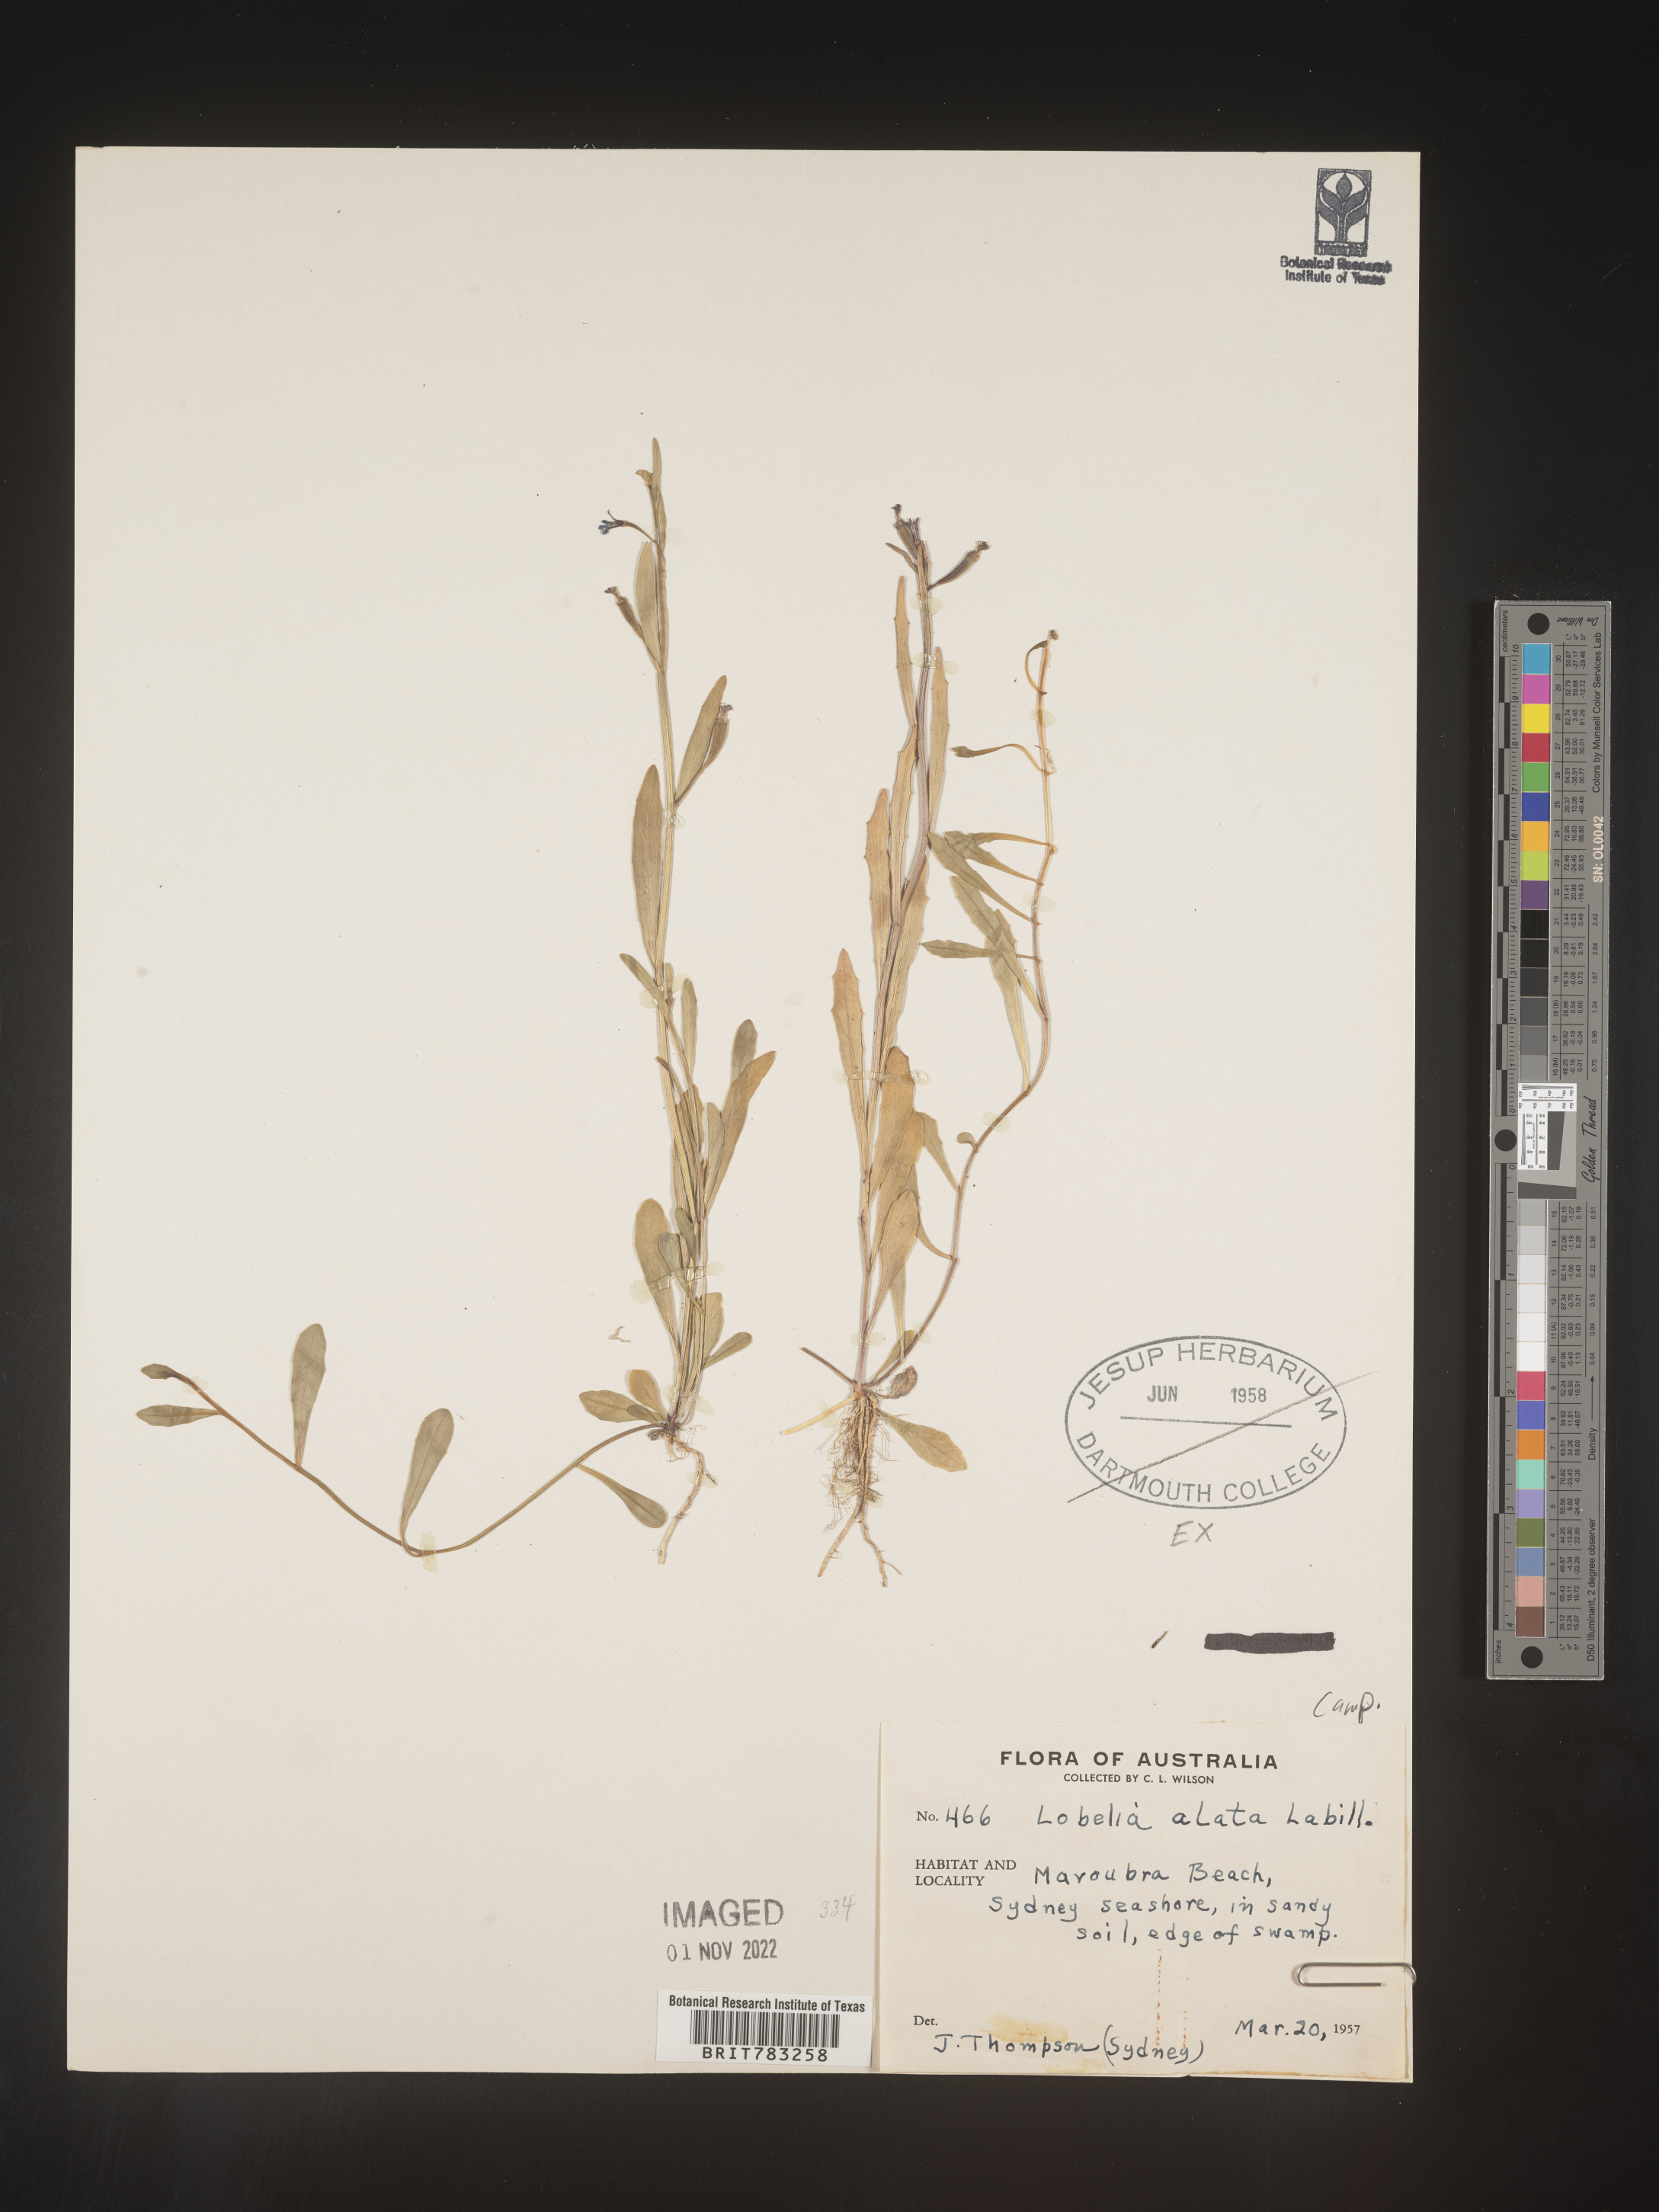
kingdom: Plantae
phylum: Tracheophyta
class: Magnoliopsida
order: Asterales
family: Campanulaceae
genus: Lobelia
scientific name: Lobelia
